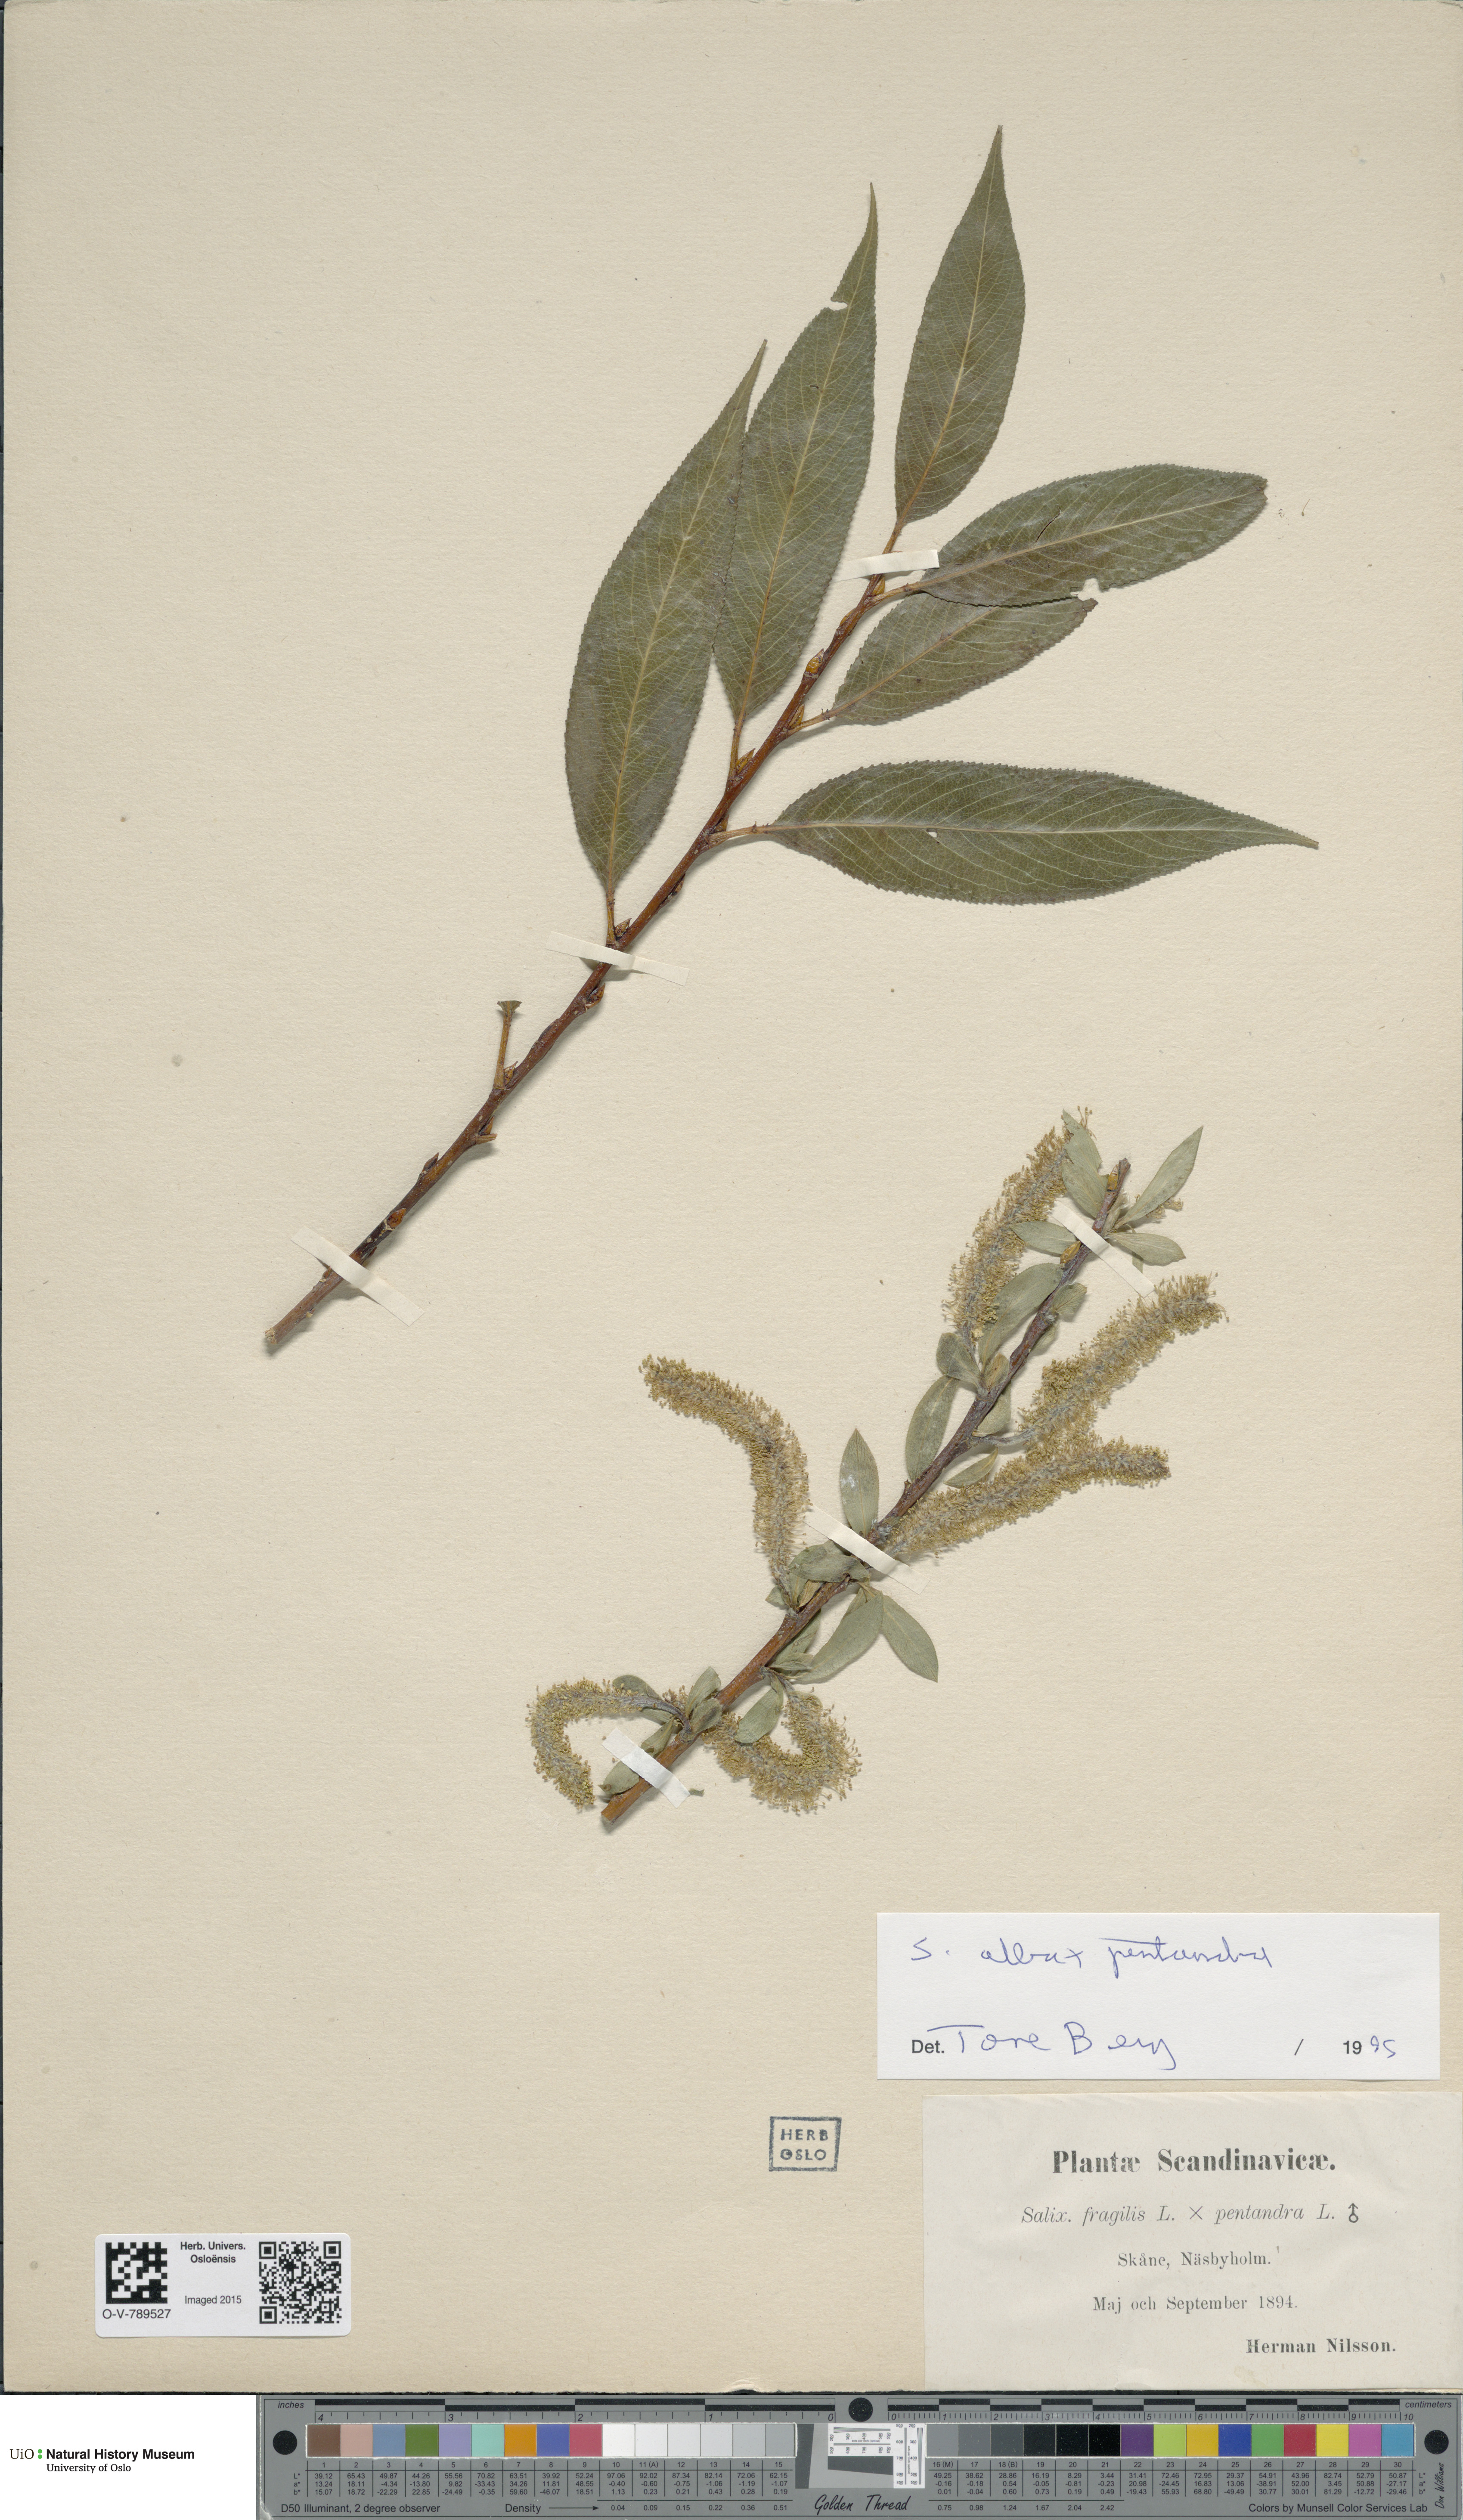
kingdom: Plantae
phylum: Tracheophyta
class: Magnoliopsida
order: Malpighiales
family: Salicaceae
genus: Salix
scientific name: Salix
